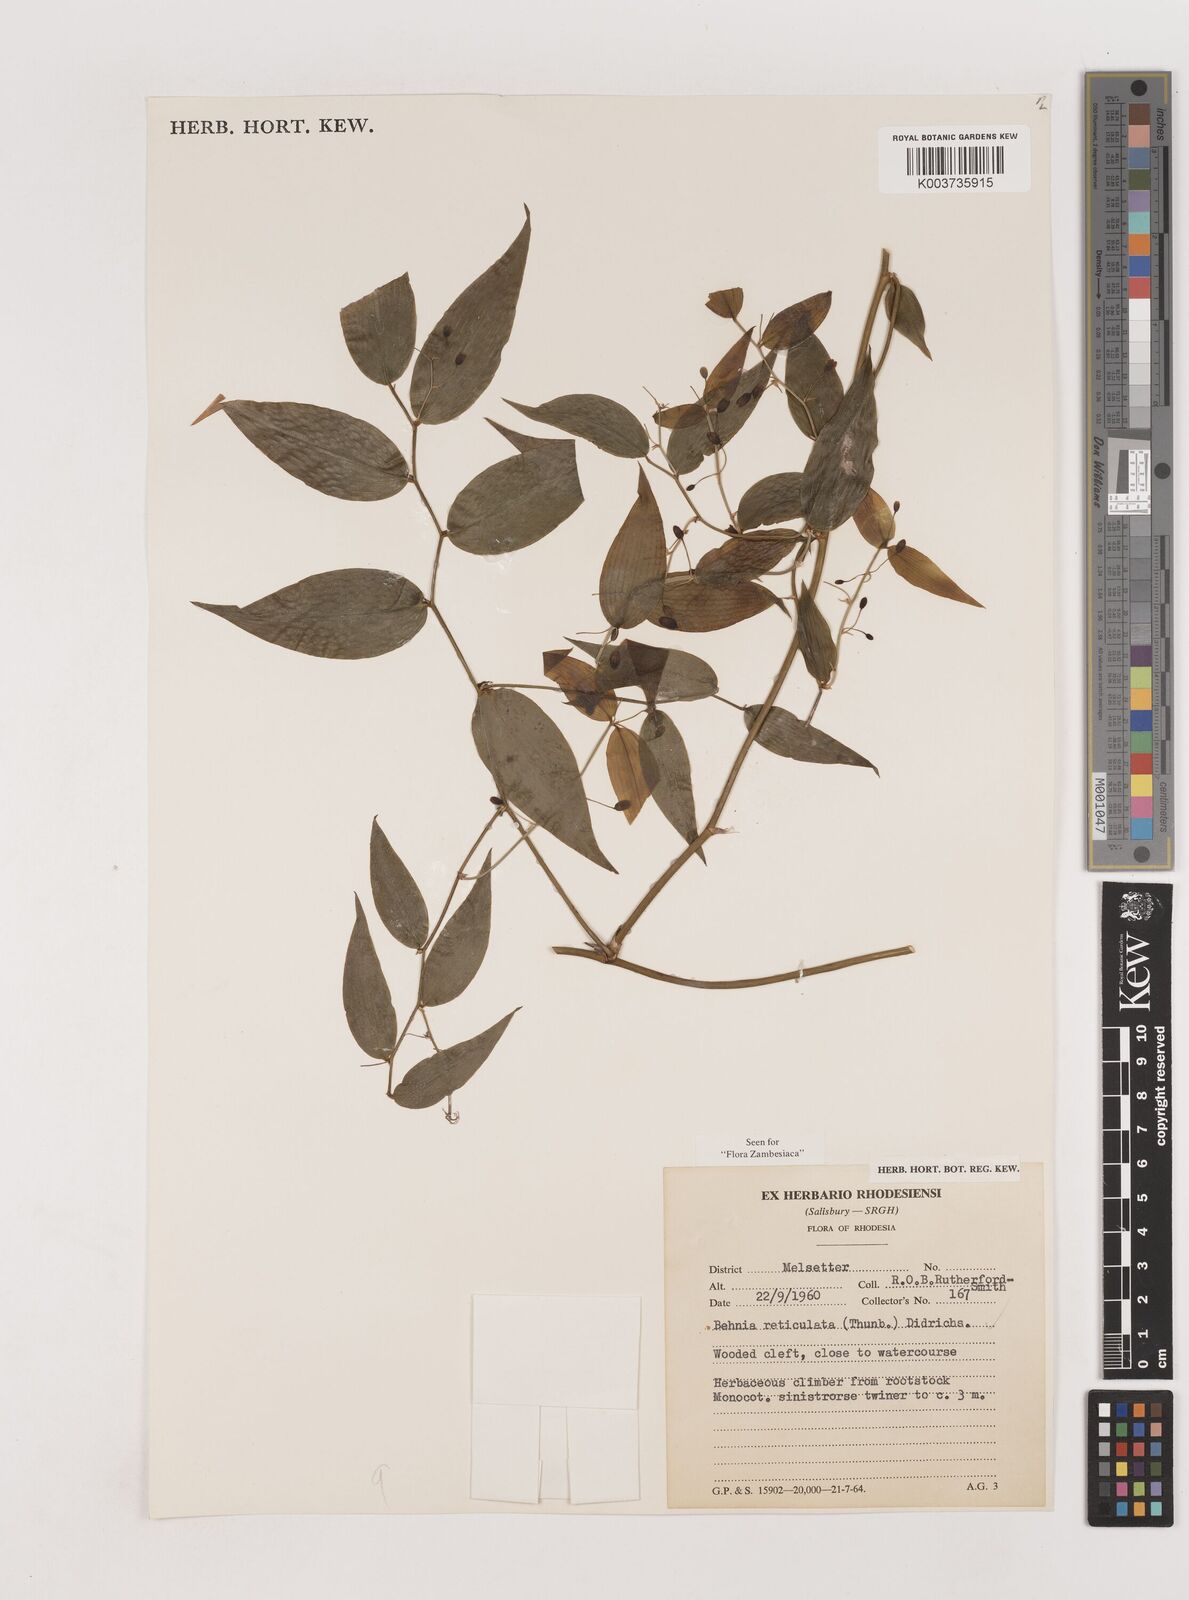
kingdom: Plantae
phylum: Tracheophyta
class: Liliopsida
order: Asparagales
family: Asparagaceae
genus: Behnia
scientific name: Behnia reticulata
